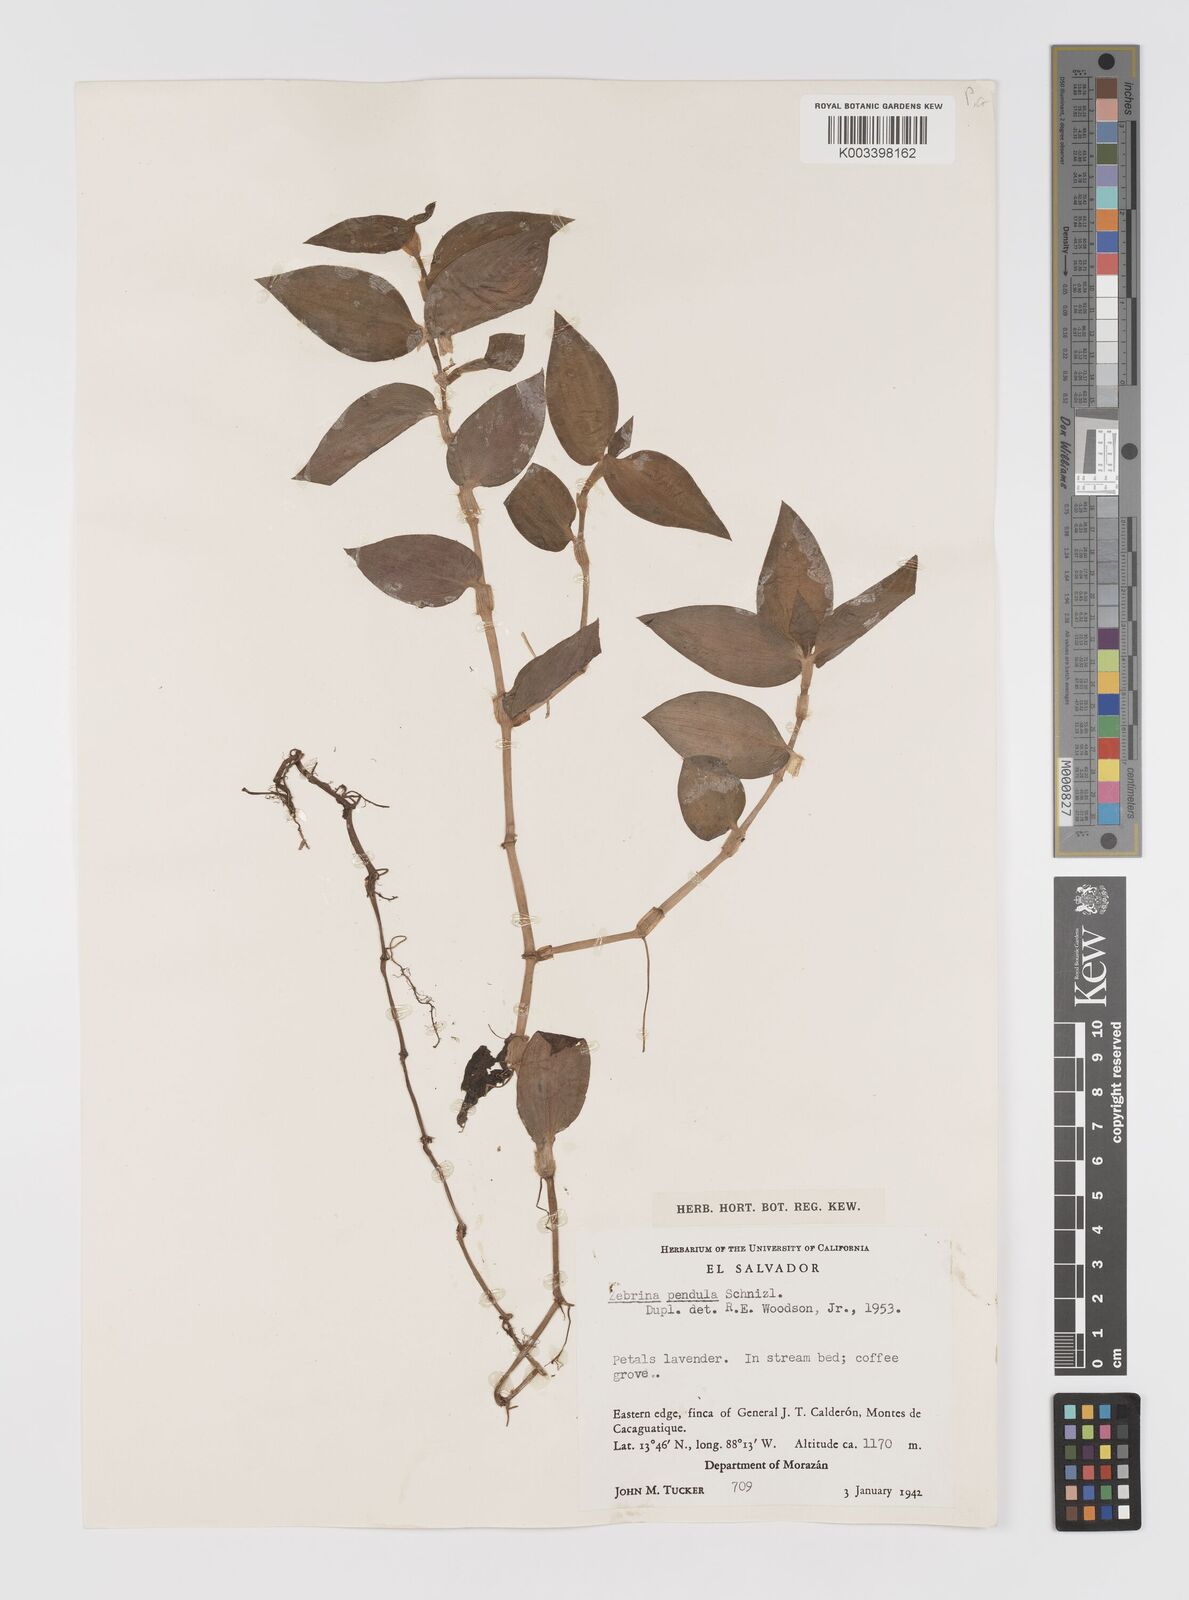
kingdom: Plantae
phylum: Tracheophyta
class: Liliopsida
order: Commelinales
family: Commelinaceae
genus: Tradescantia
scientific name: Tradescantia zebrina
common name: Inchplant
